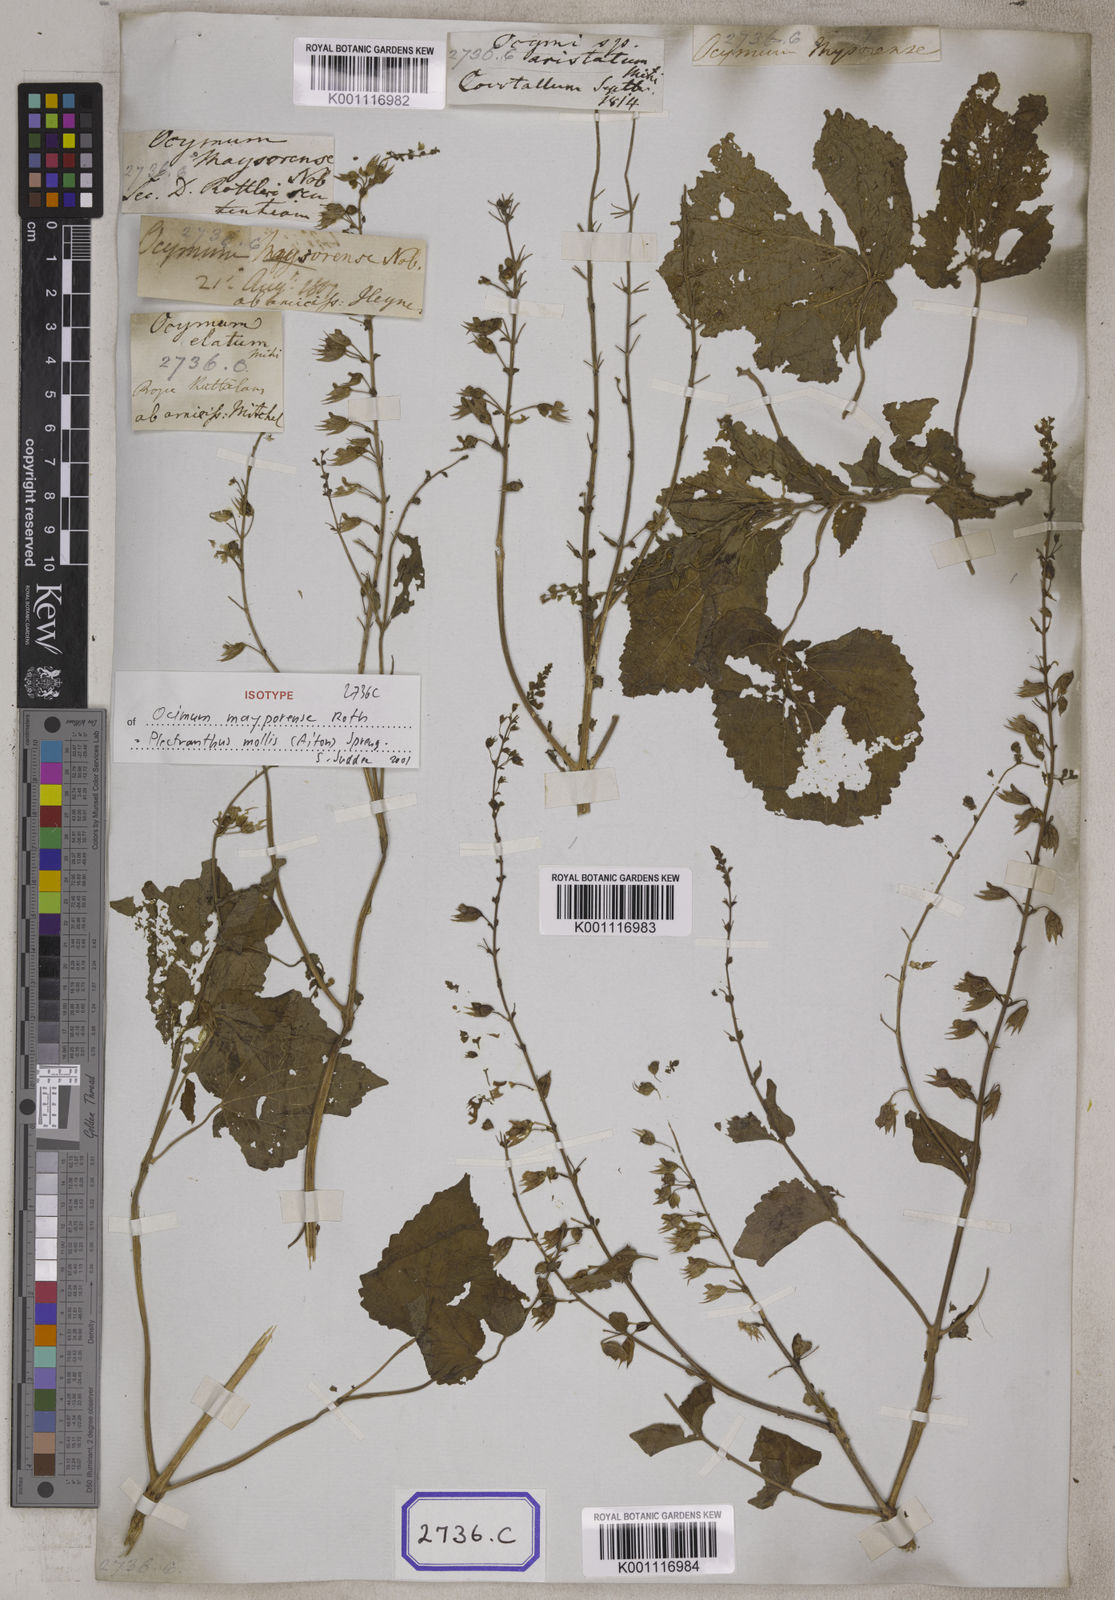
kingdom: Plantae
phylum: Tracheophyta
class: Magnoliopsida
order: Lamiales
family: Lamiaceae
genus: Equilabium
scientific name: Equilabium molle
